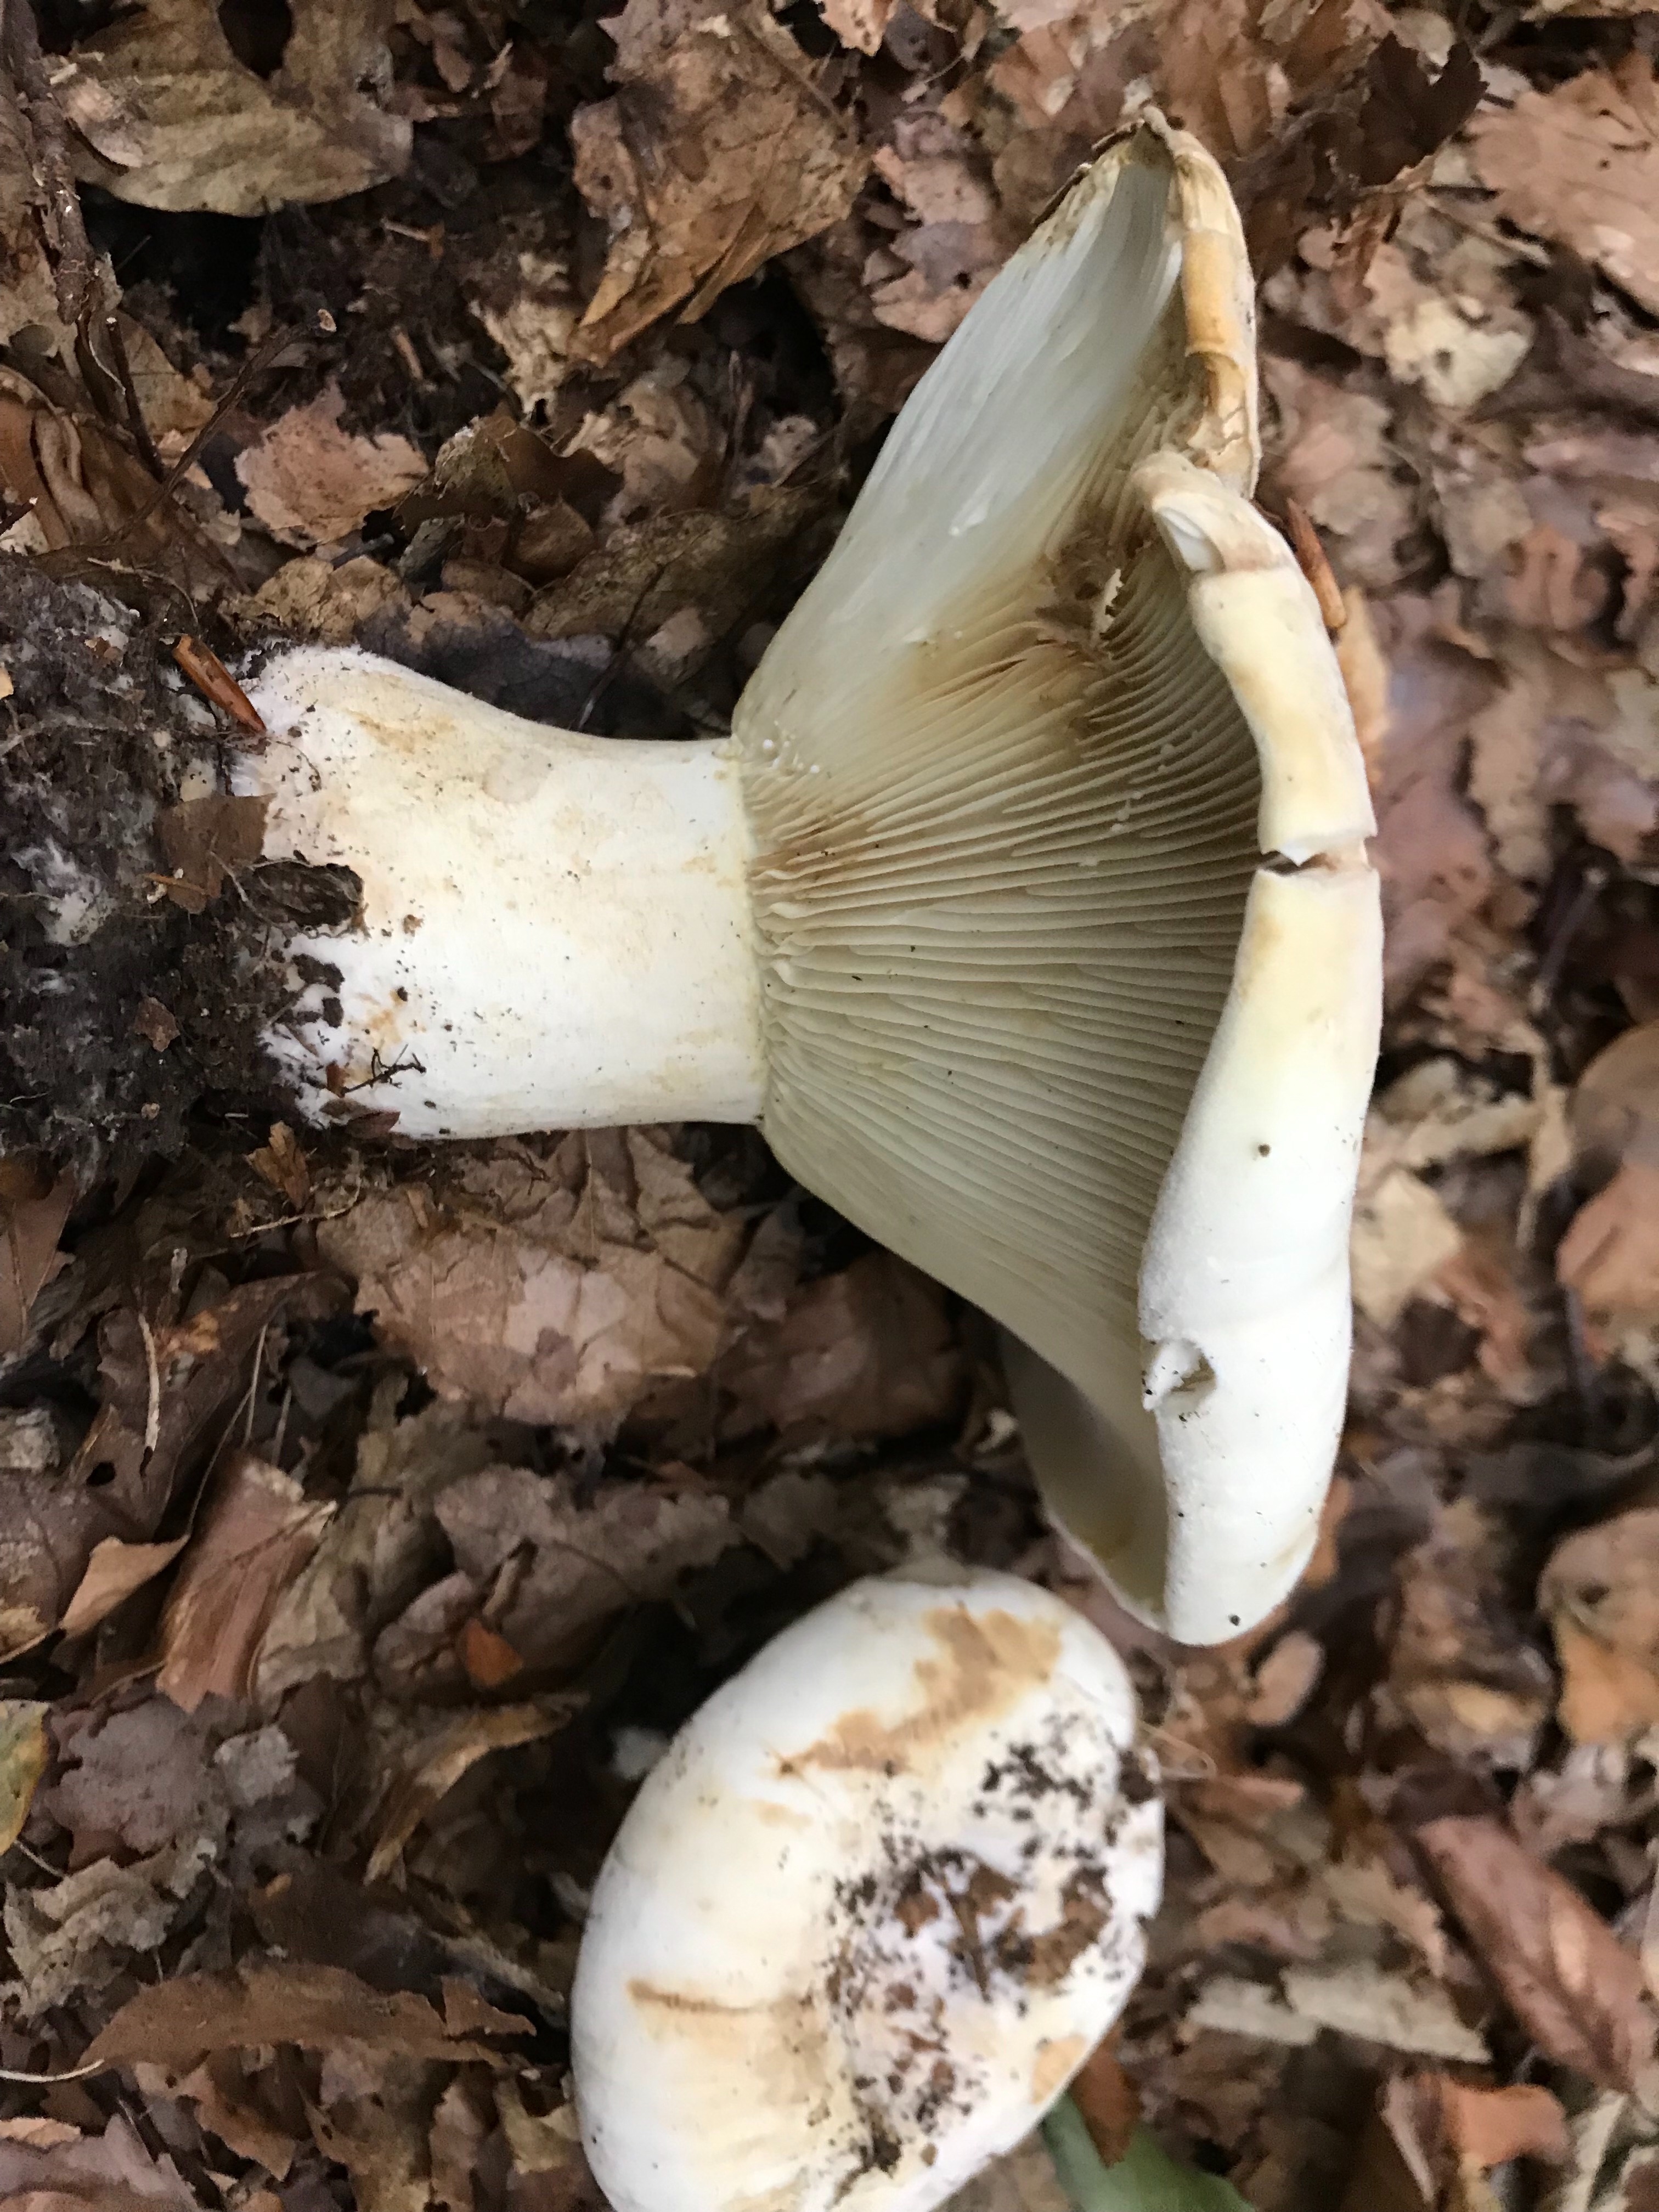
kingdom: Fungi
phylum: Basidiomycota
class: Agaricomycetes
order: Russulales
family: Russulaceae
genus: Lactifluus
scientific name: Lactifluus vellereus
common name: hvidfiltet mælkehat
